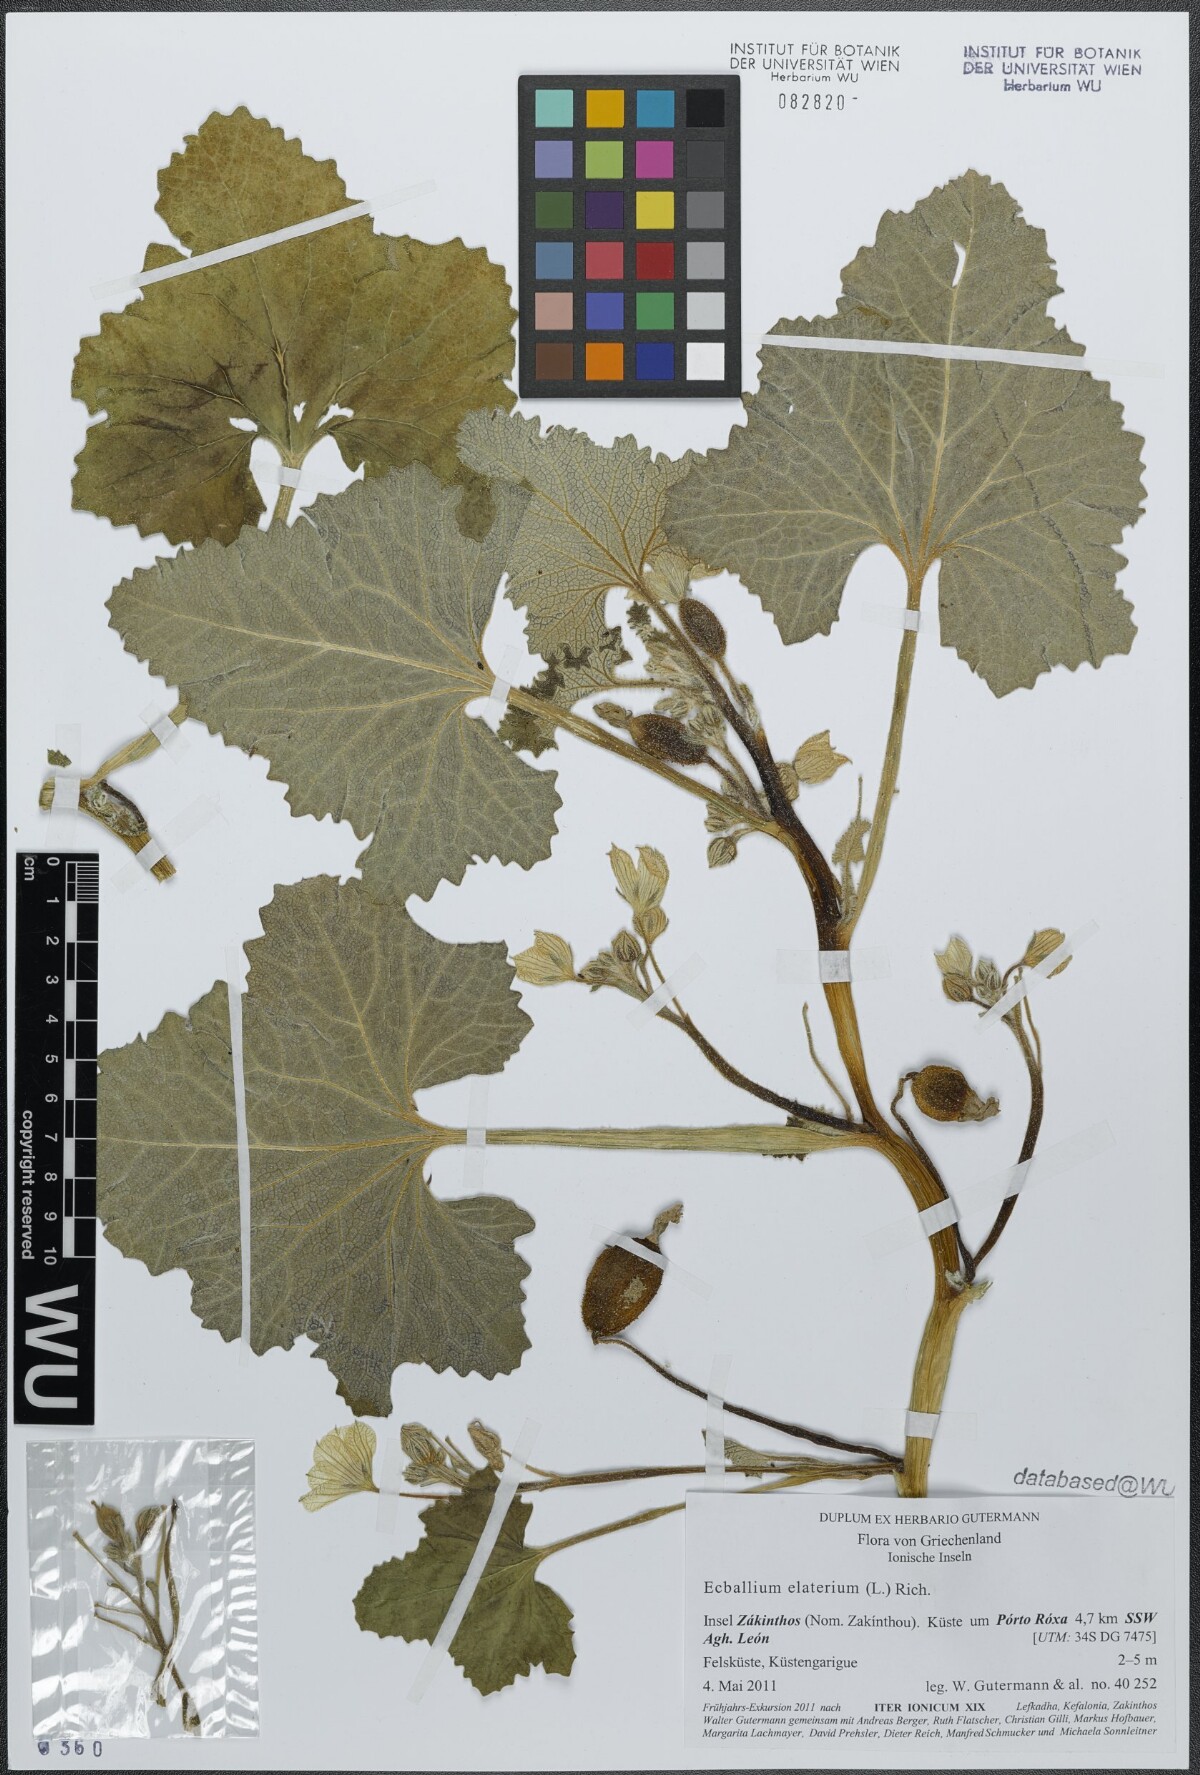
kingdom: Plantae
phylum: Tracheophyta
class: Magnoliopsida
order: Cucurbitales
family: Cucurbitaceae
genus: Ecballium
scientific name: Ecballium elaterium
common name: Squirting cucumber
